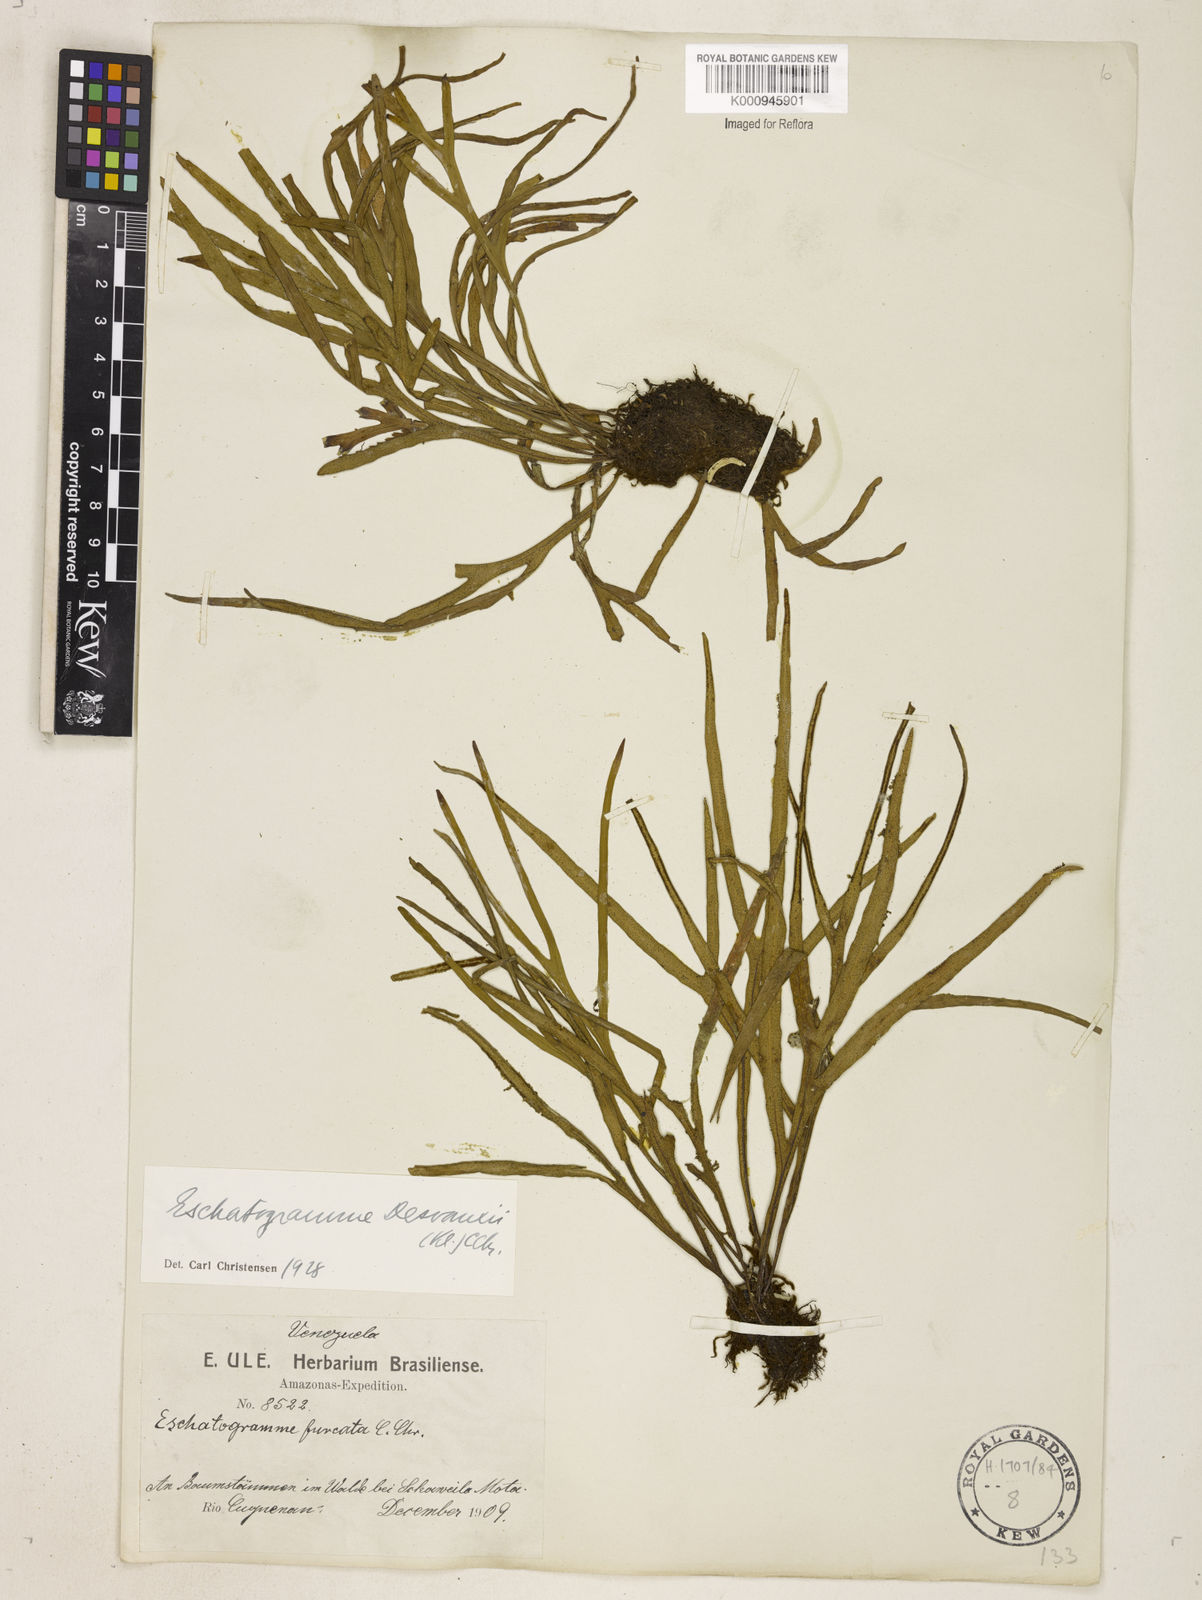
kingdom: Plantae
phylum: Tracheophyta
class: Polypodiopsida
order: Polypodiales
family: Polypodiaceae
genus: Pleopeltis
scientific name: Pleopeltis desvauxii
